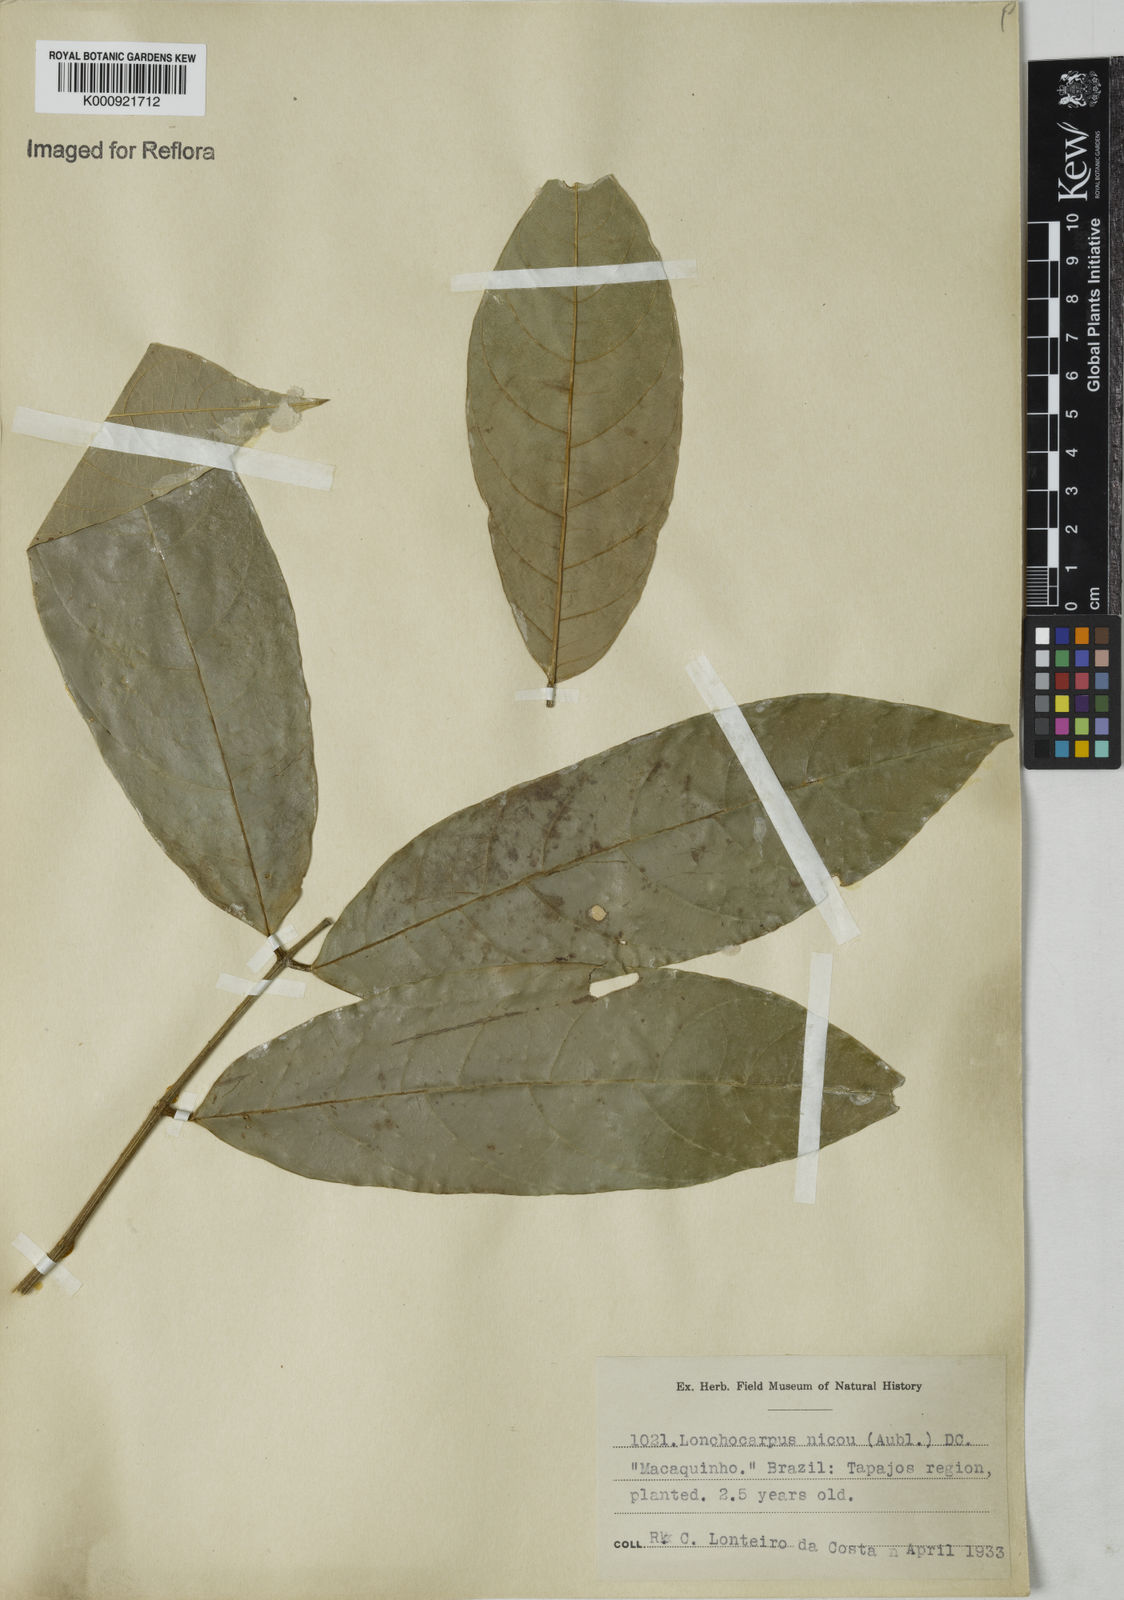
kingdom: Plantae
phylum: Tracheophyta
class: Magnoliopsida
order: Fabales
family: Fabaceae
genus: Lonchocarpus
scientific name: Lonchocarpus
